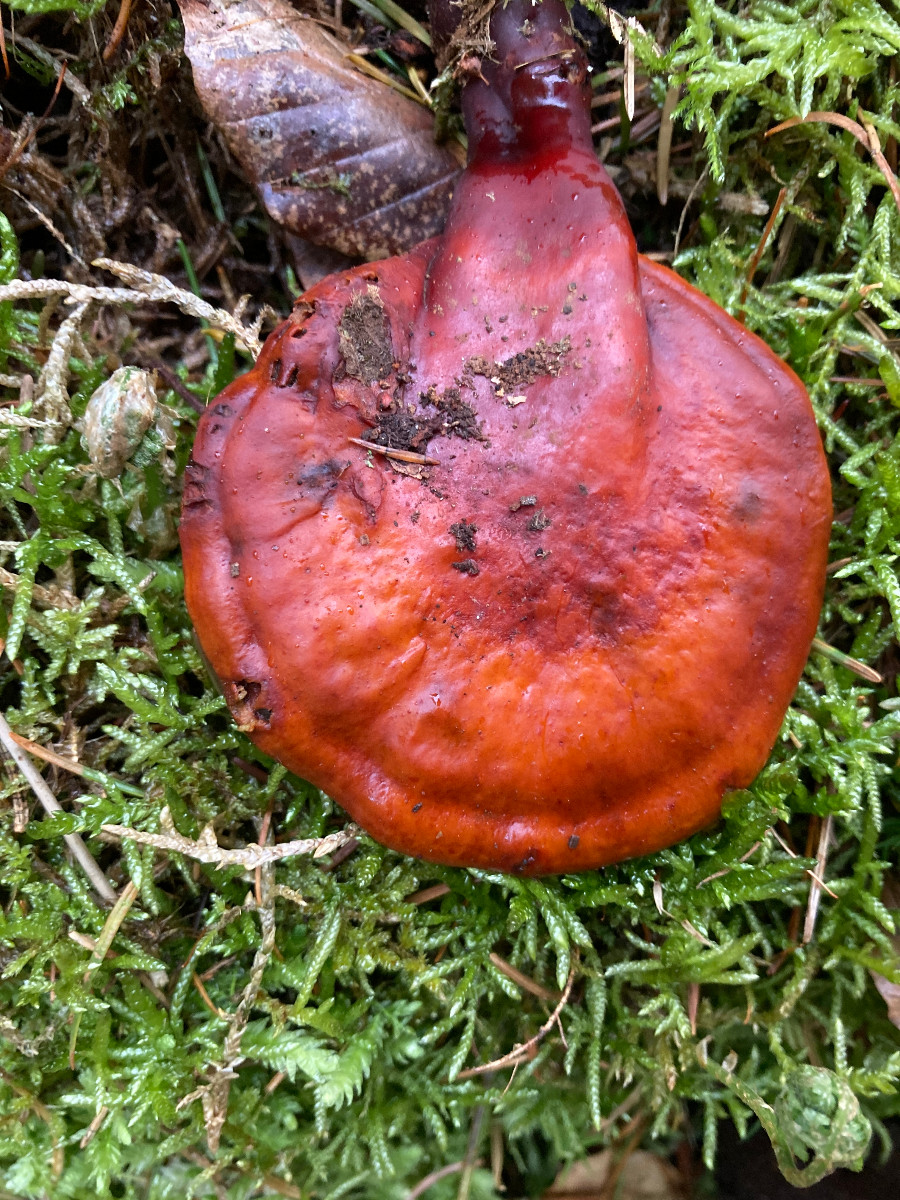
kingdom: Fungi
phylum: Basidiomycota
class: Agaricomycetes
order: Polyporales
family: Polyporaceae
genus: Ganoderma
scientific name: Ganoderma lucidum
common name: skinnende lakporesvamp
